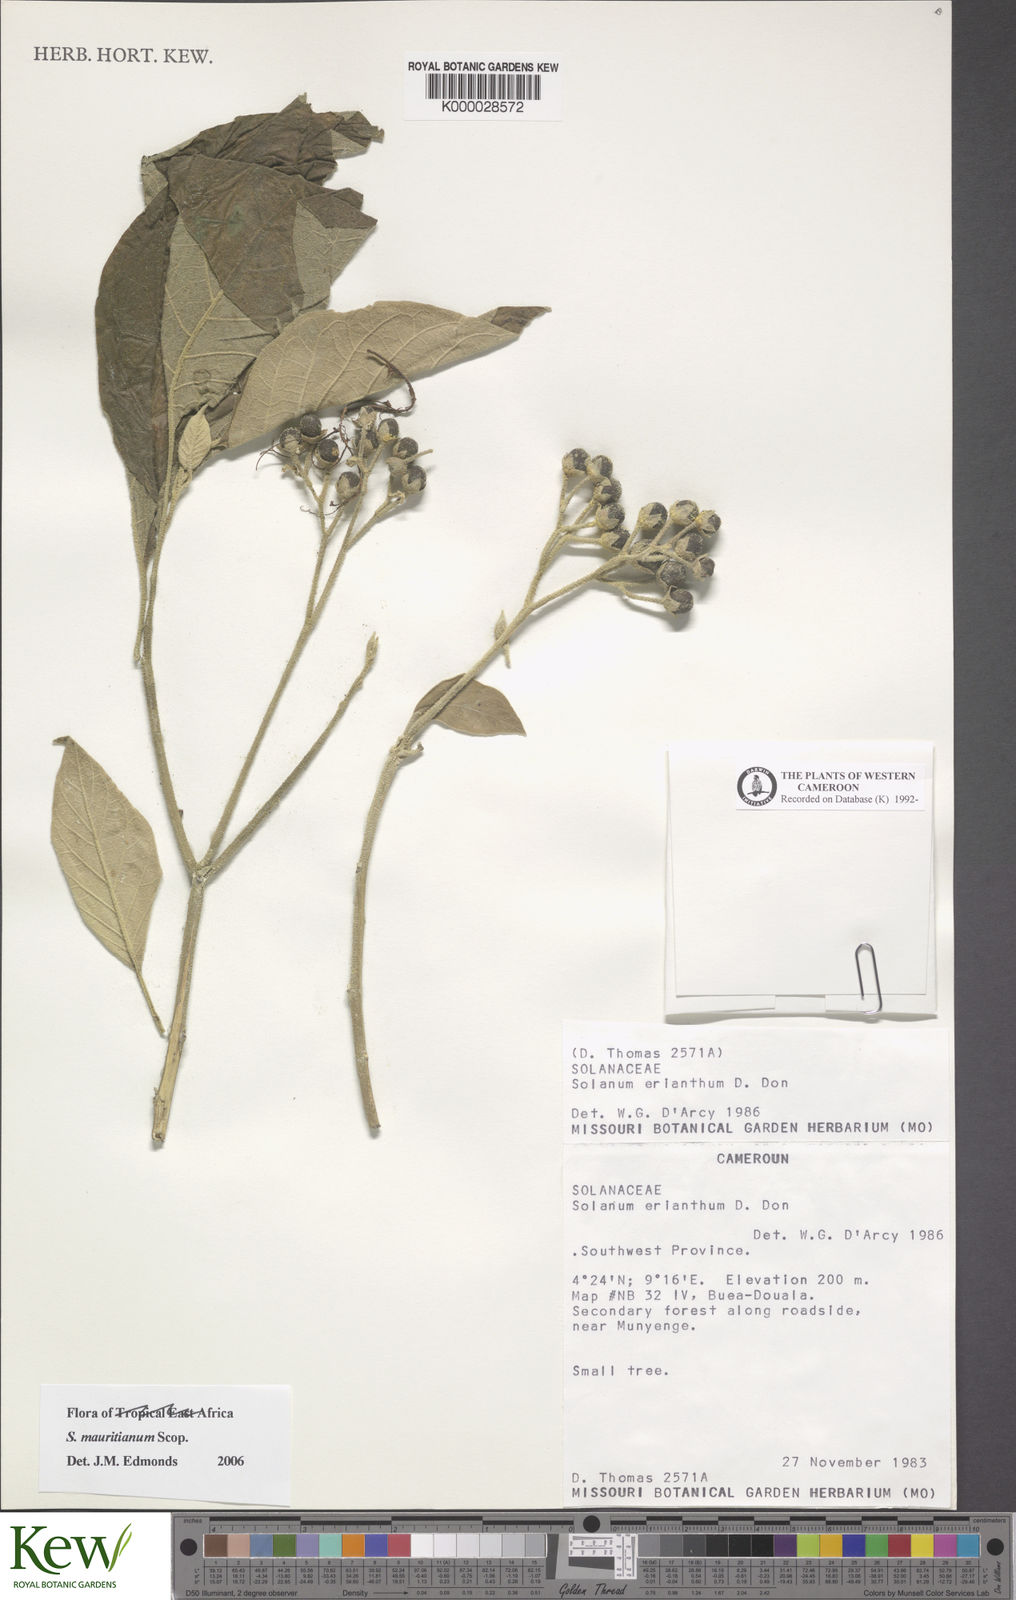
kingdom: Plantae
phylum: Tracheophyta
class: Magnoliopsida
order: Solanales
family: Solanaceae
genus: Solanum
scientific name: Solanum mauritianum
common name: Earleaf nightshade
